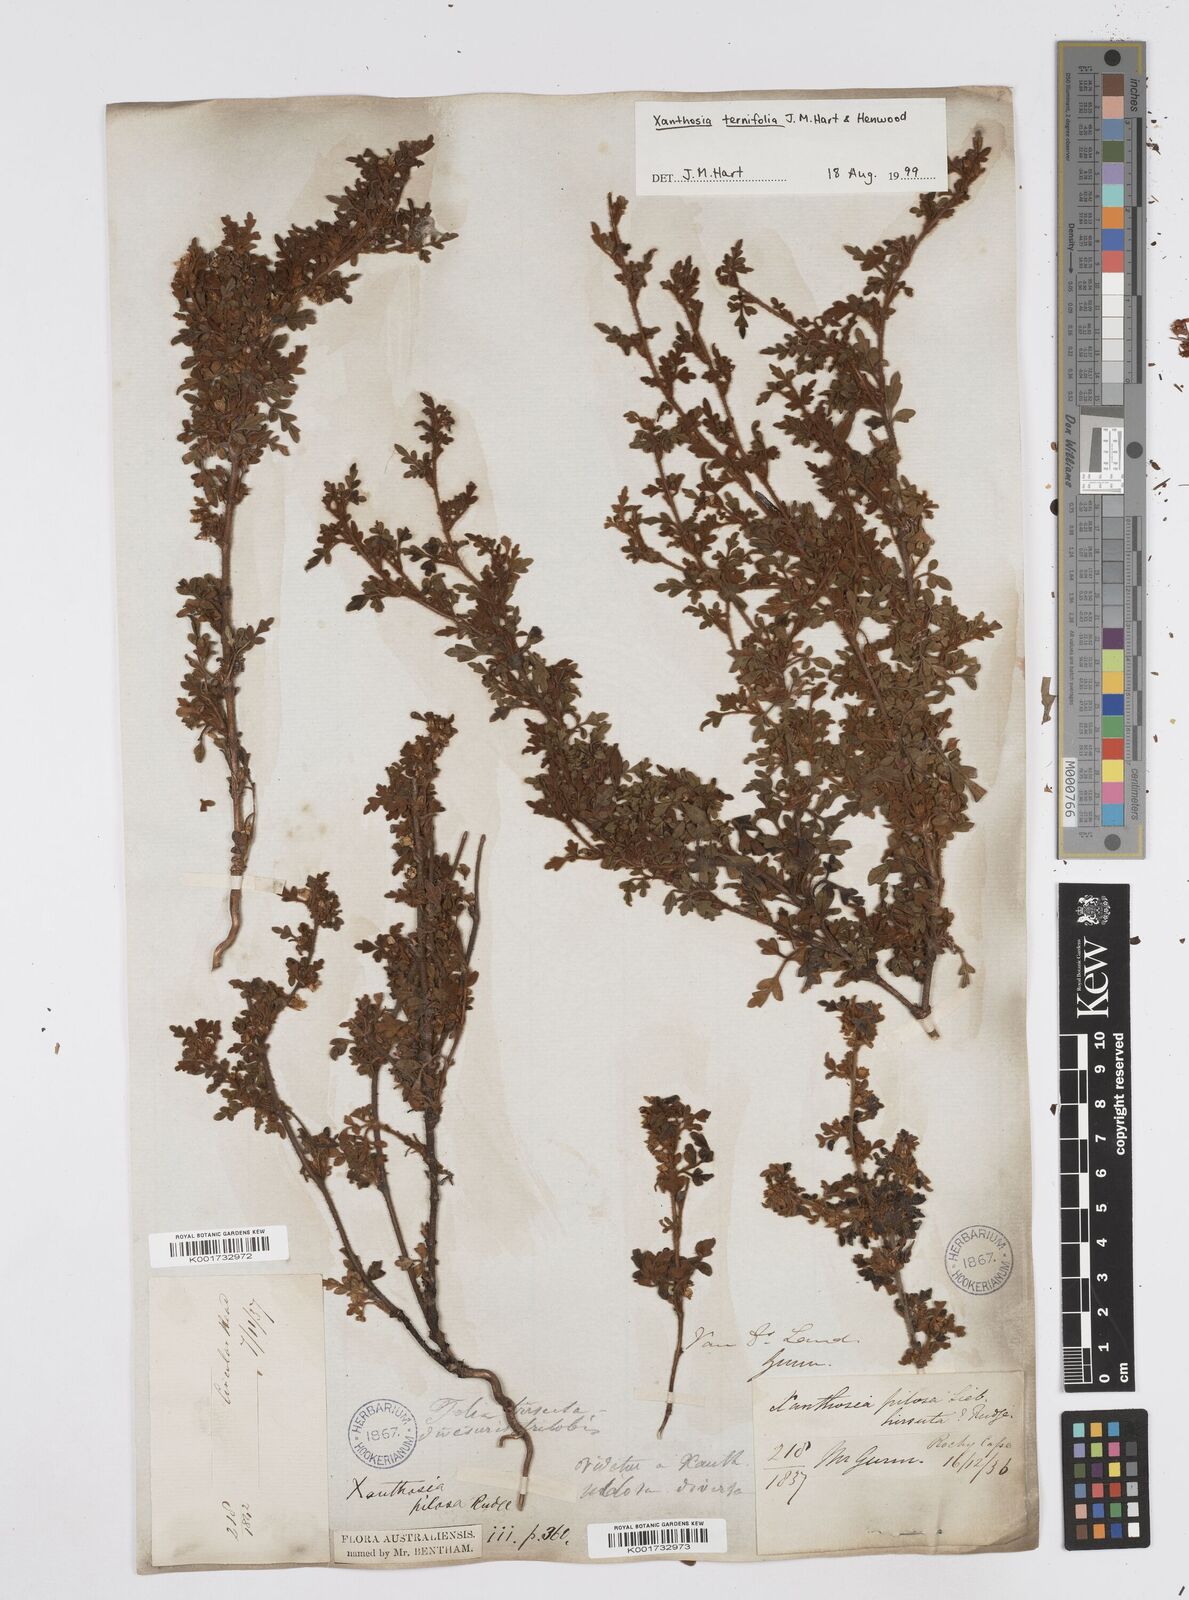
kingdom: Plantae
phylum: Tracheophyta
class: Magnoliopsida
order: Apiales
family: Apiaceae
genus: Xanthosia
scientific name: Xanthosia ternifolia
